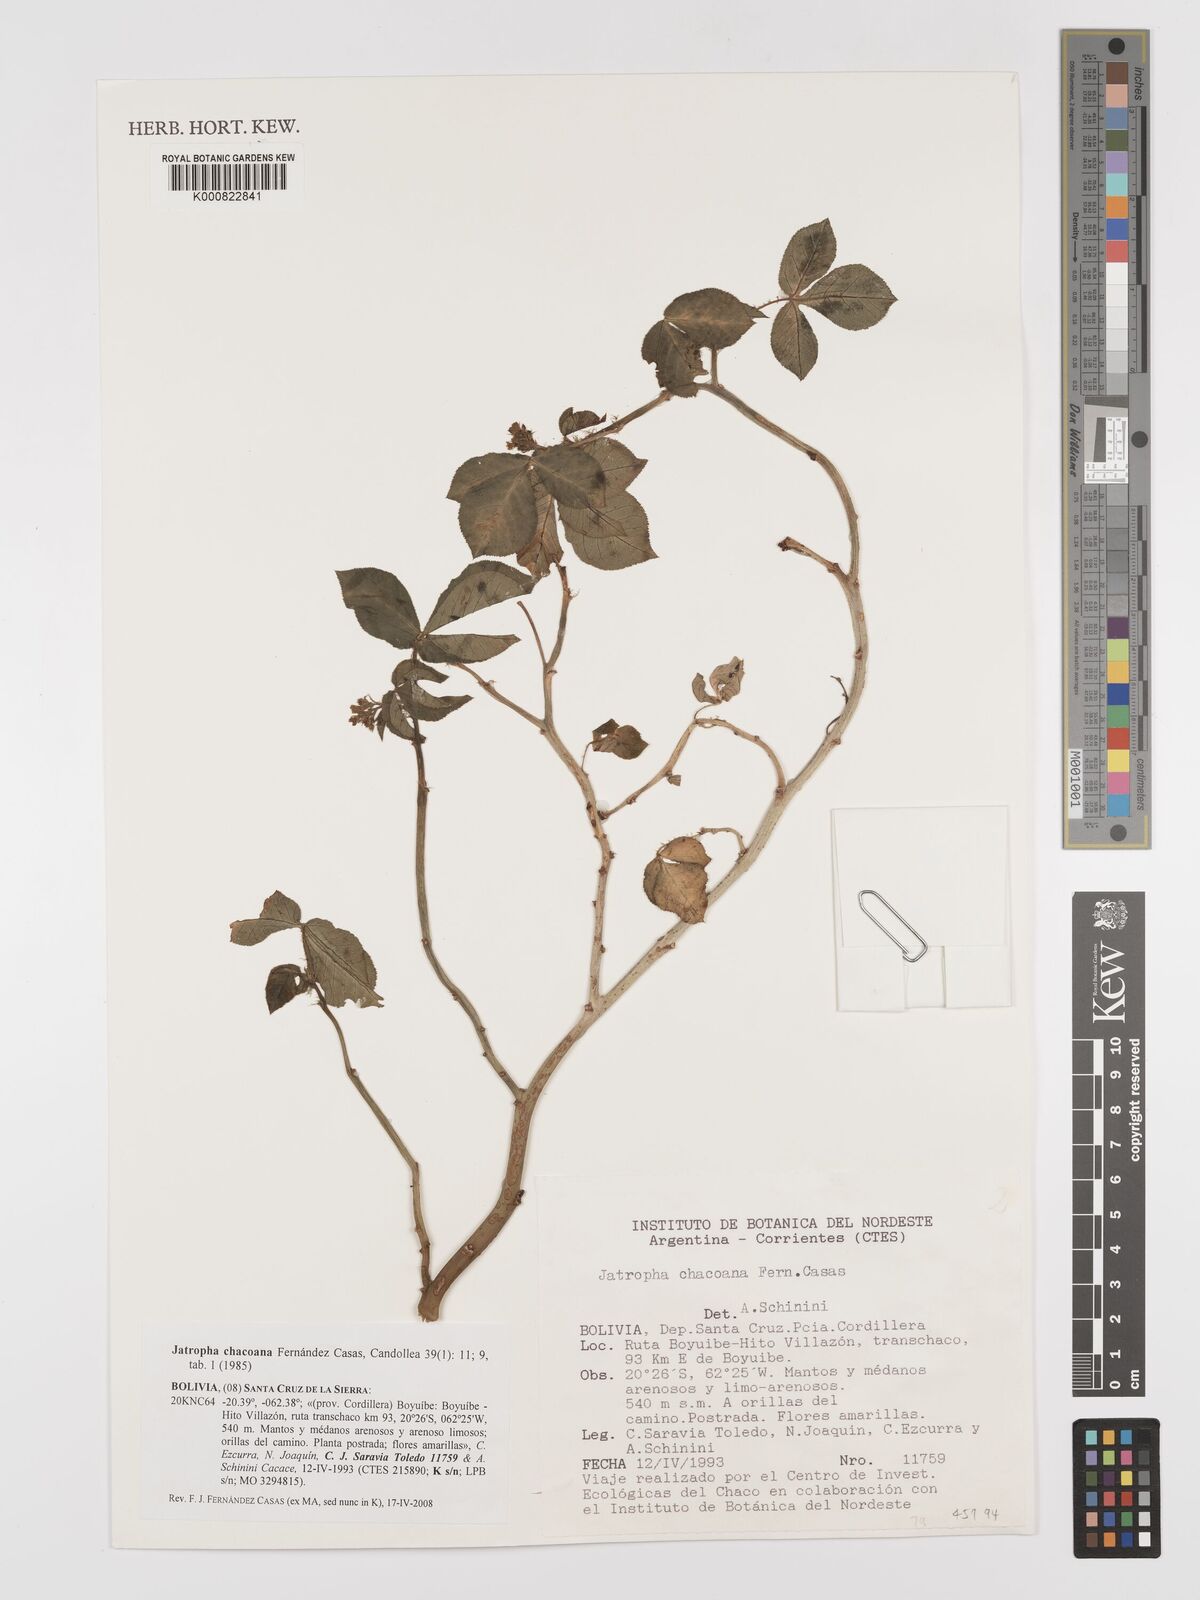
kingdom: Plantae
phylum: Tracheophyta
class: Magnoliopsida
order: Malpighiales
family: Euphorbiaceae
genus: Jatropha
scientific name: Jatropha peiranoi
